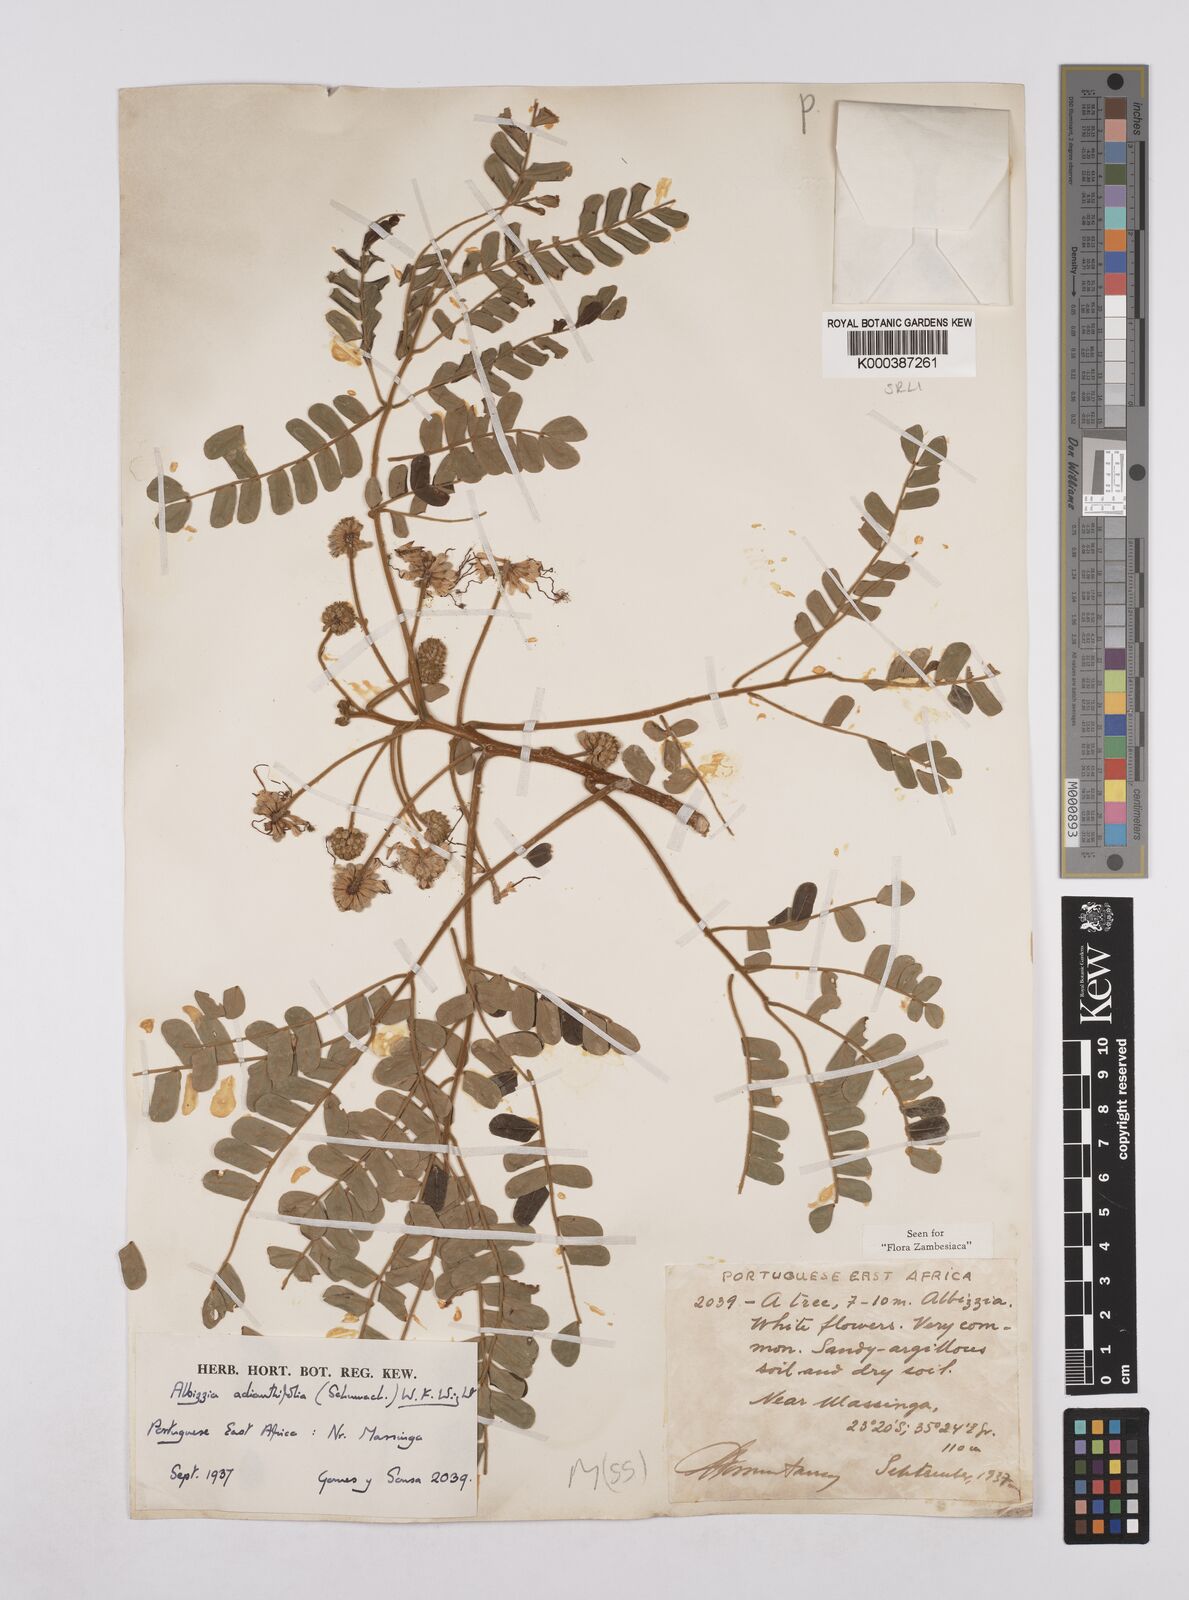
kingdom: Plantae
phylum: Tracheophyta
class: Magnoliopsida
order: Fabales
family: Fabaceae
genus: Albizia
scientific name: Albizia adianthifolia
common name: West african albizia
